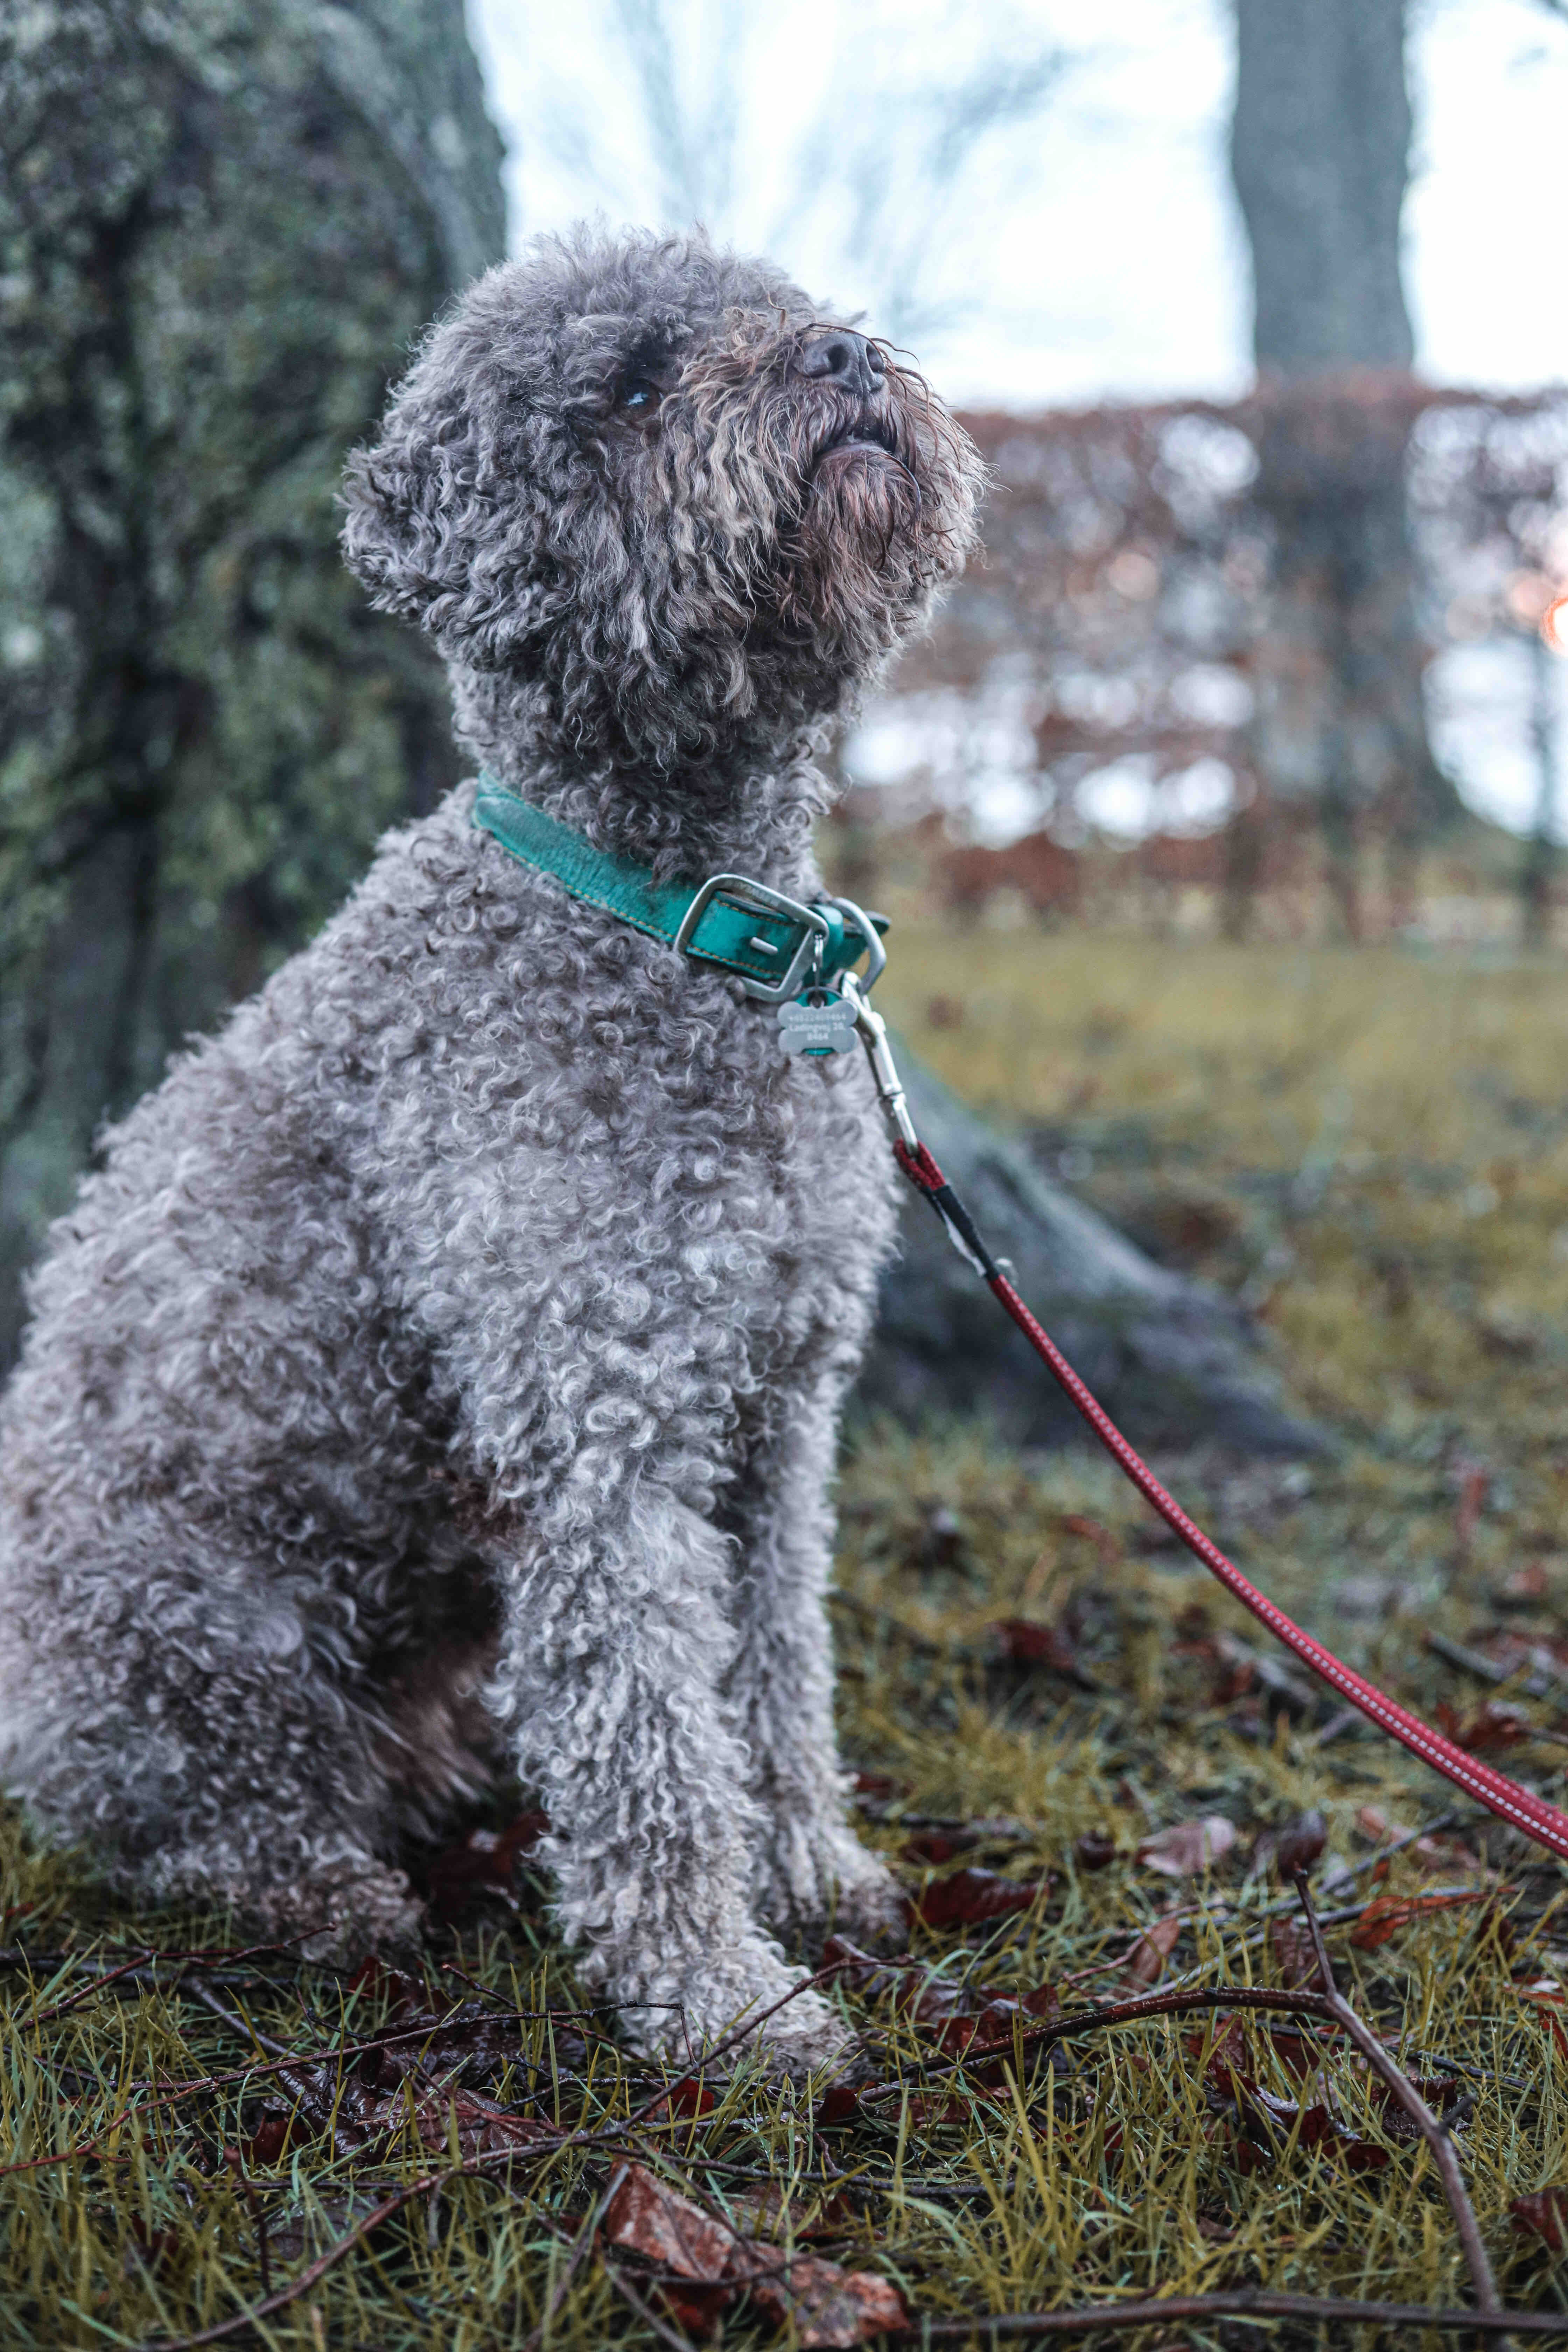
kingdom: Fungi
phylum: Ascomycota
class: Pezizomycetes
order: Pezizales
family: Tuberaceae
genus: Tuber
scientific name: Tuber aestivum
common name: sommer-trøffel
